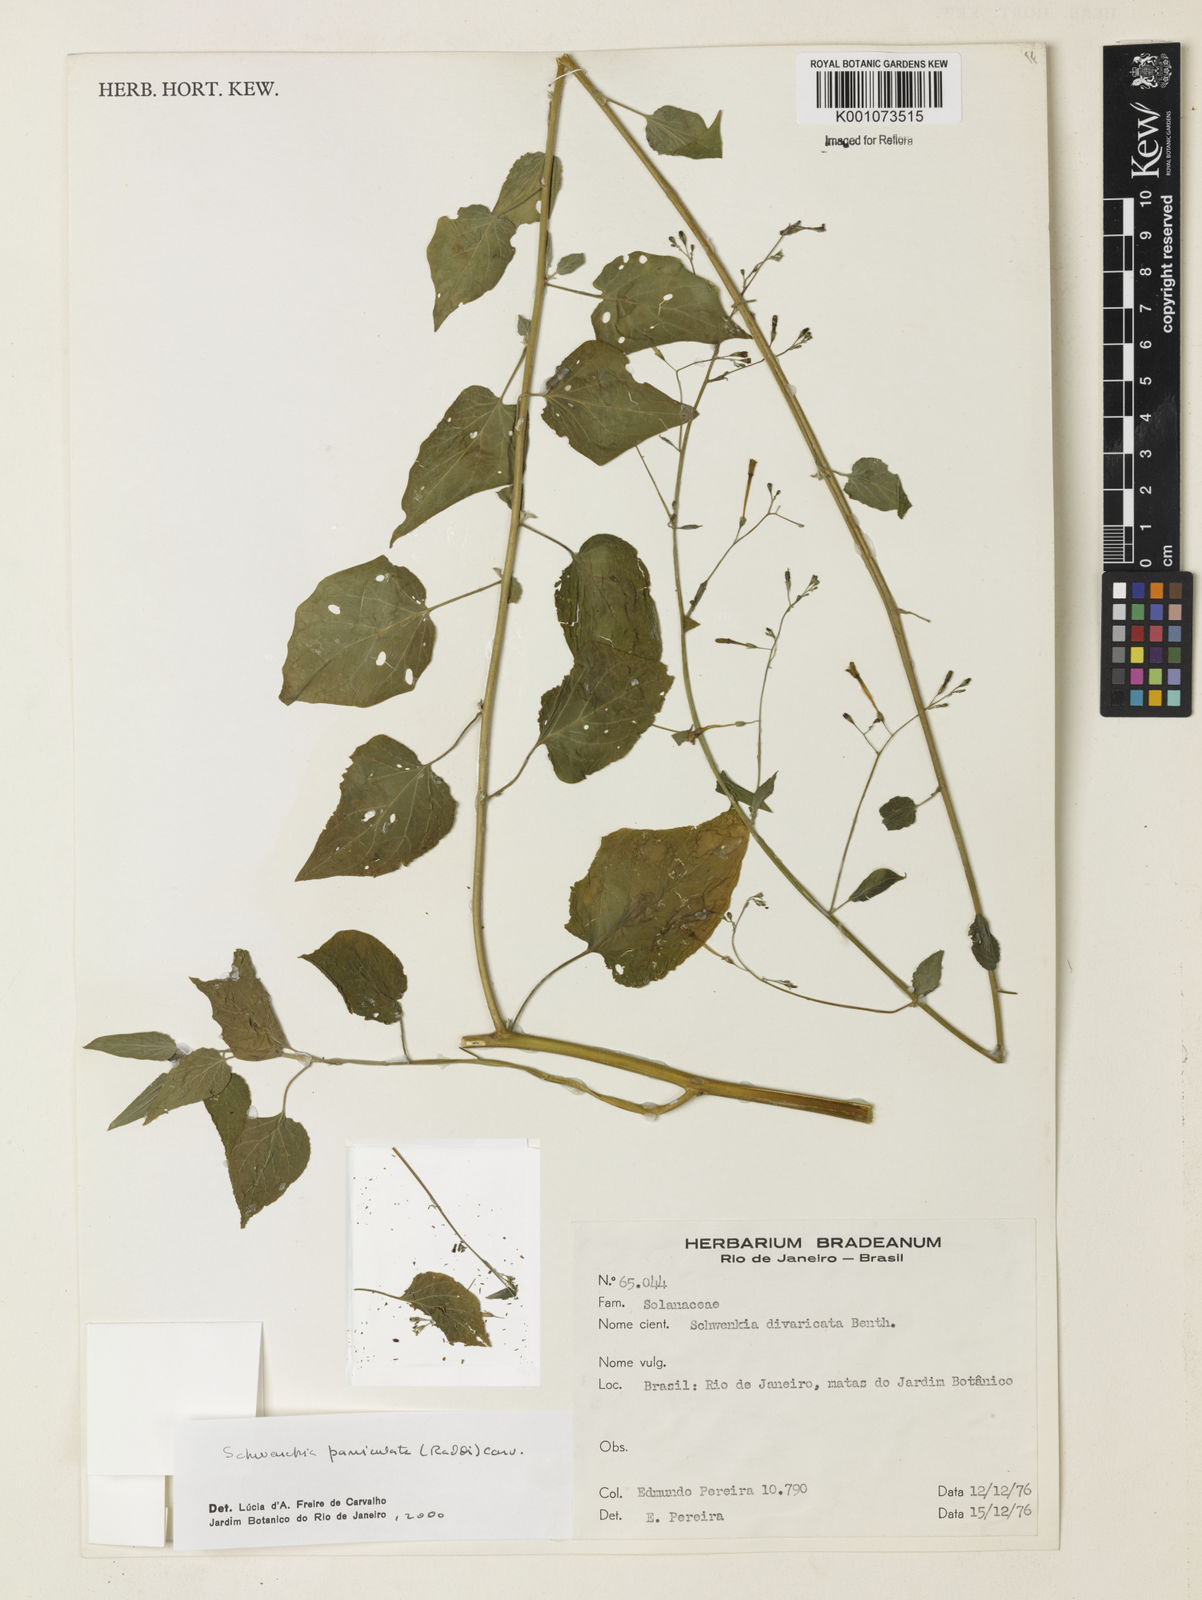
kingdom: Plantae
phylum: Tracheophyta
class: Magnoliopsida
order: Solanales
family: Solanaceae
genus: Schwenckia
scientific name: Schwenckia paniculata
